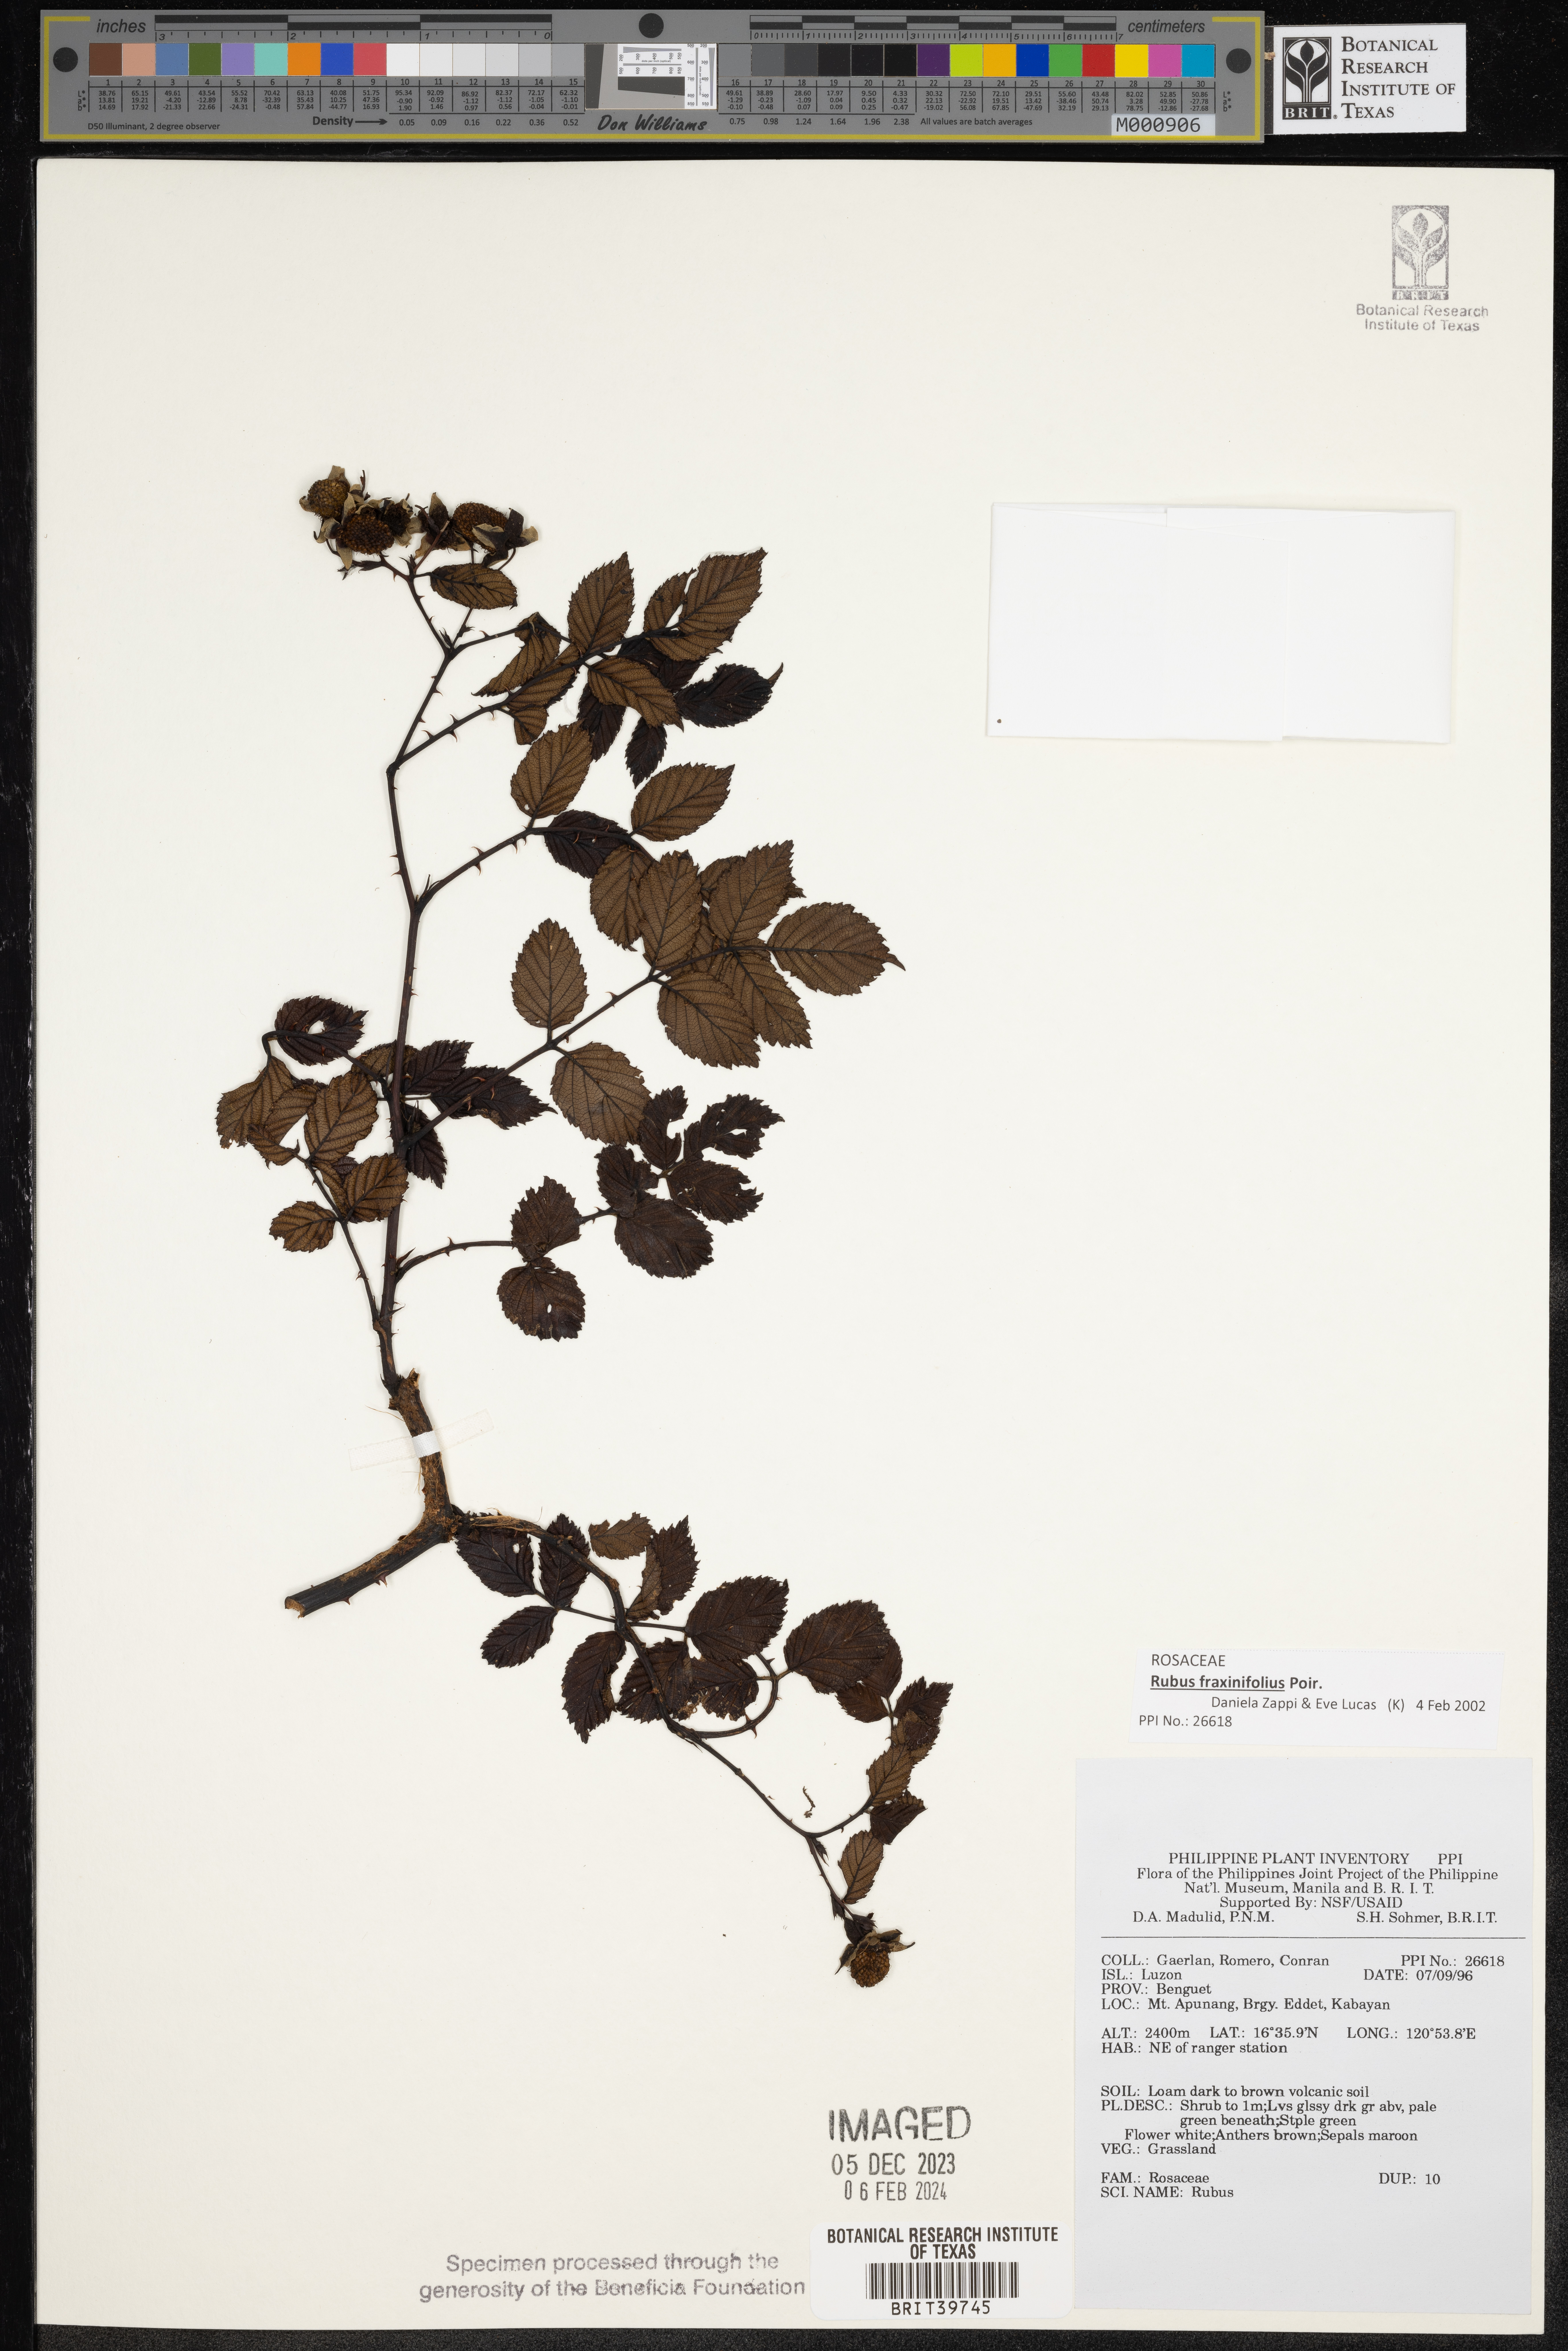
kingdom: Plantae
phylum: Tracheophyta
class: Magnoliopsida
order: Rosales
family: Rosaceae
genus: Rubus
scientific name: Rubus
